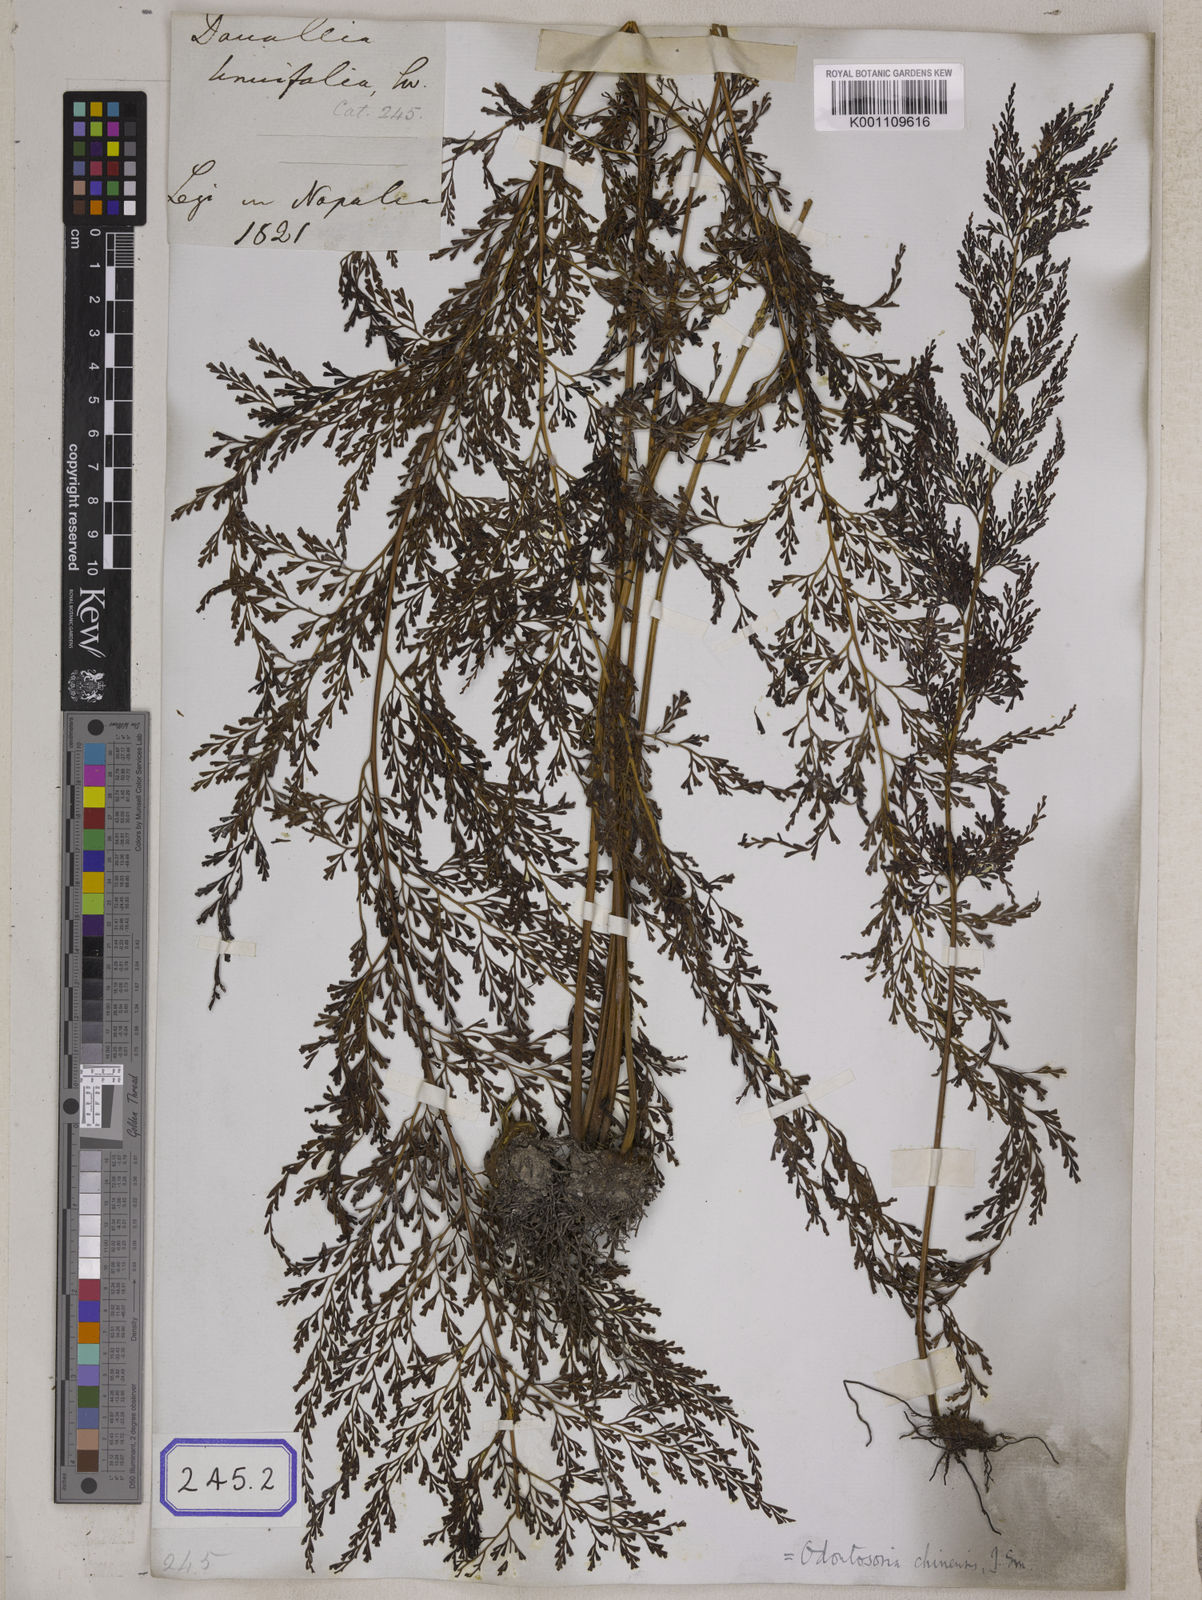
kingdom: Plantae
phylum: Tracheophyta
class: Polypodiopsida
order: Polypodiales
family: Lindsaeaceae
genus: Odontosoria
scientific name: Odontosoria chinensis
